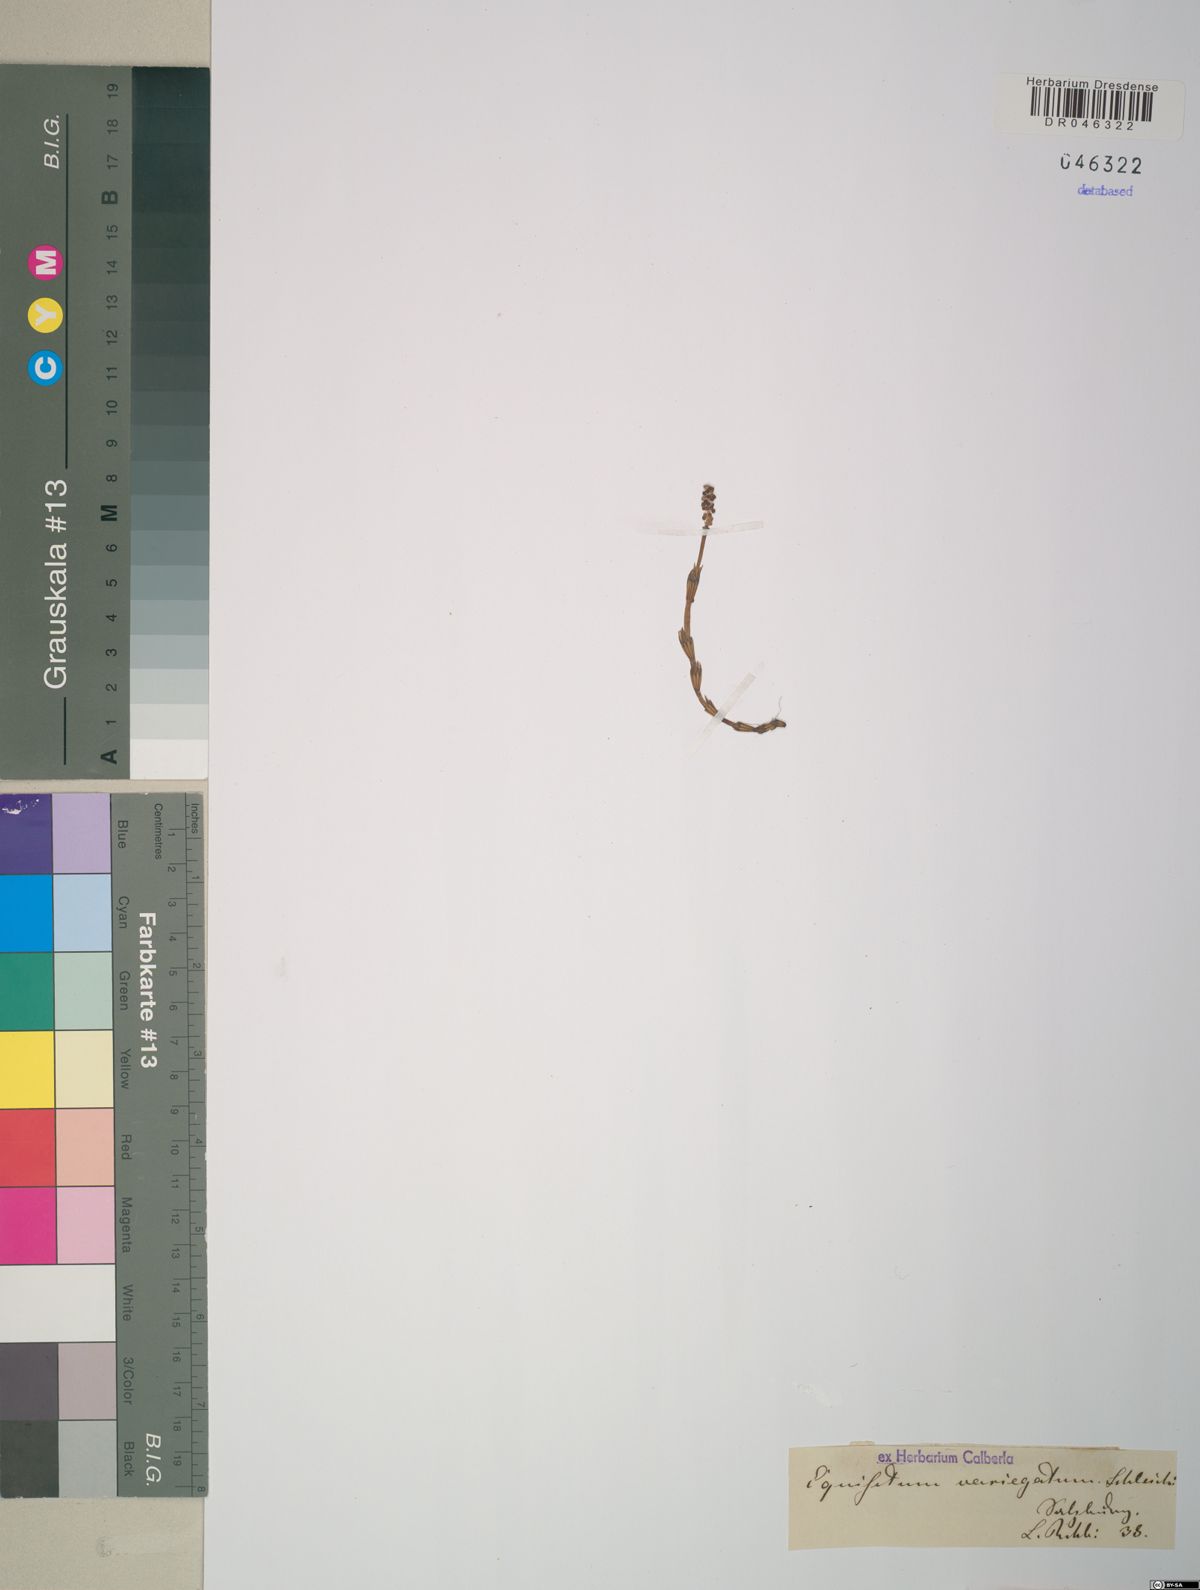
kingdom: Plantae
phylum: Tracheophyta
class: Polypodiopsida
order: Equisetales
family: Equisetaceae
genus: Equisetum
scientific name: Equisetum variegatum
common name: Variegated horsetail
